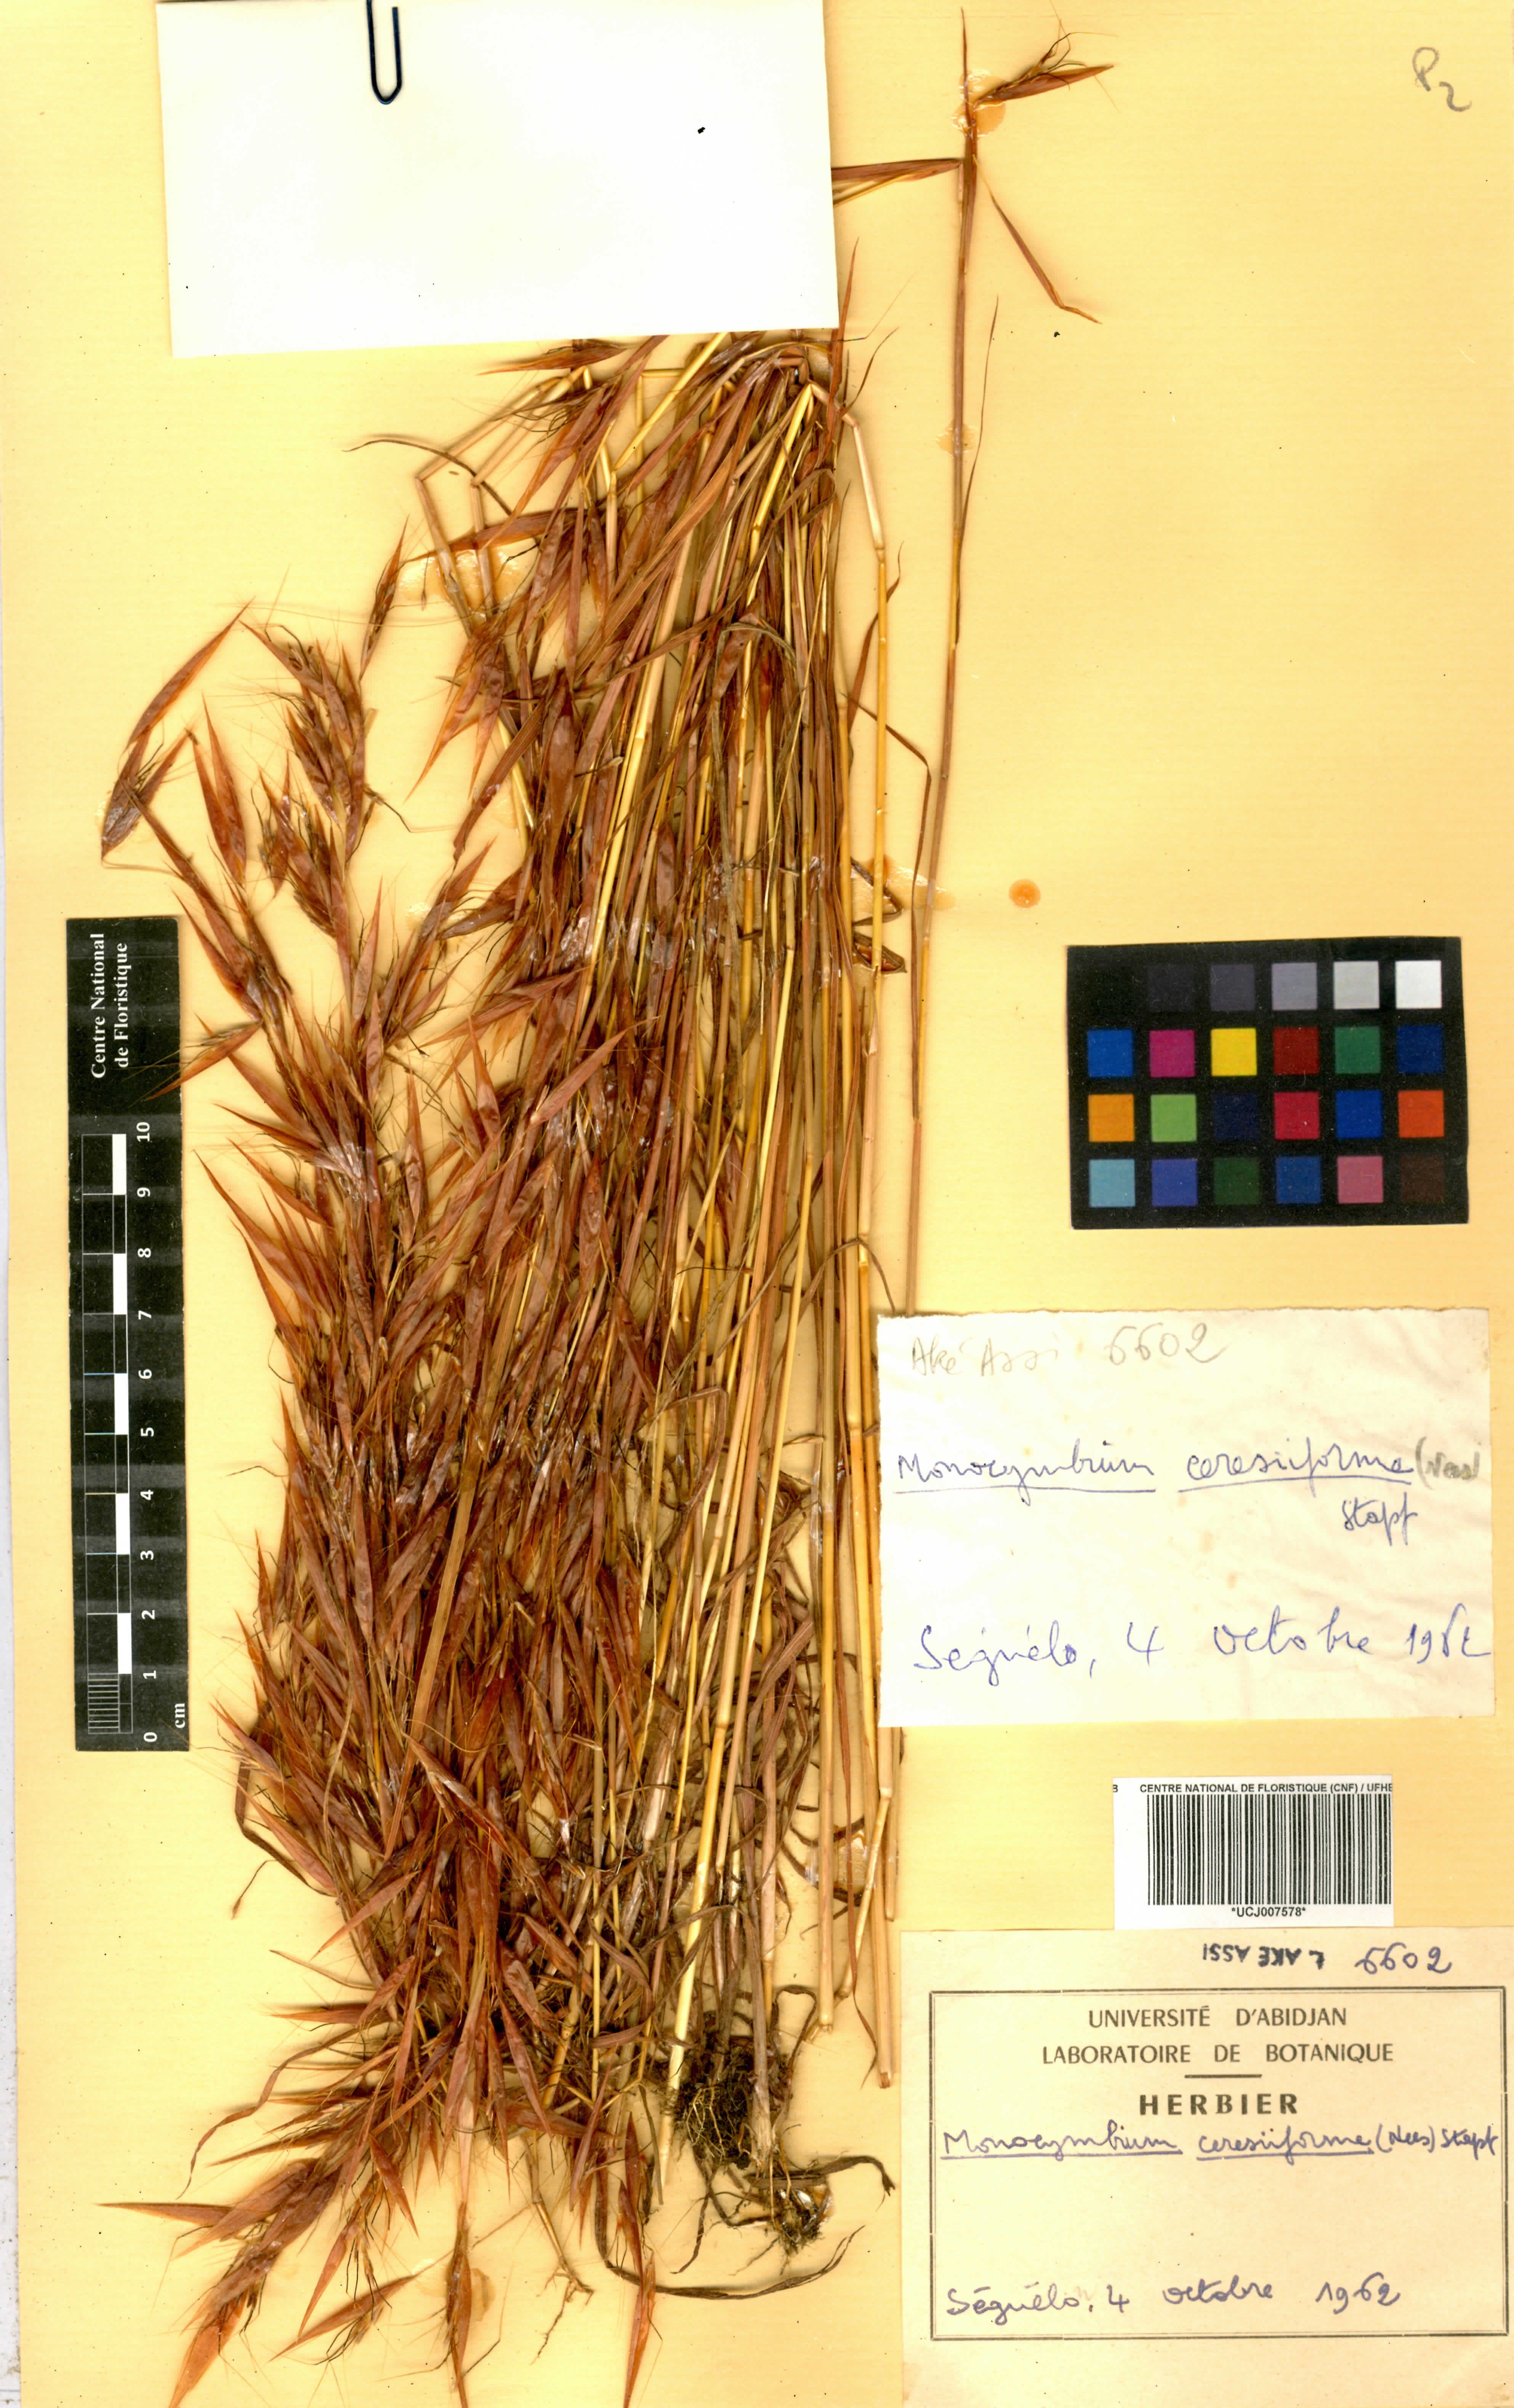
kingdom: Plantae
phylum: Tracheophyta
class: Liliopsida
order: Poales
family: Poaceae
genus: Monocymbium
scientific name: Monocymbium ceresiiforme
